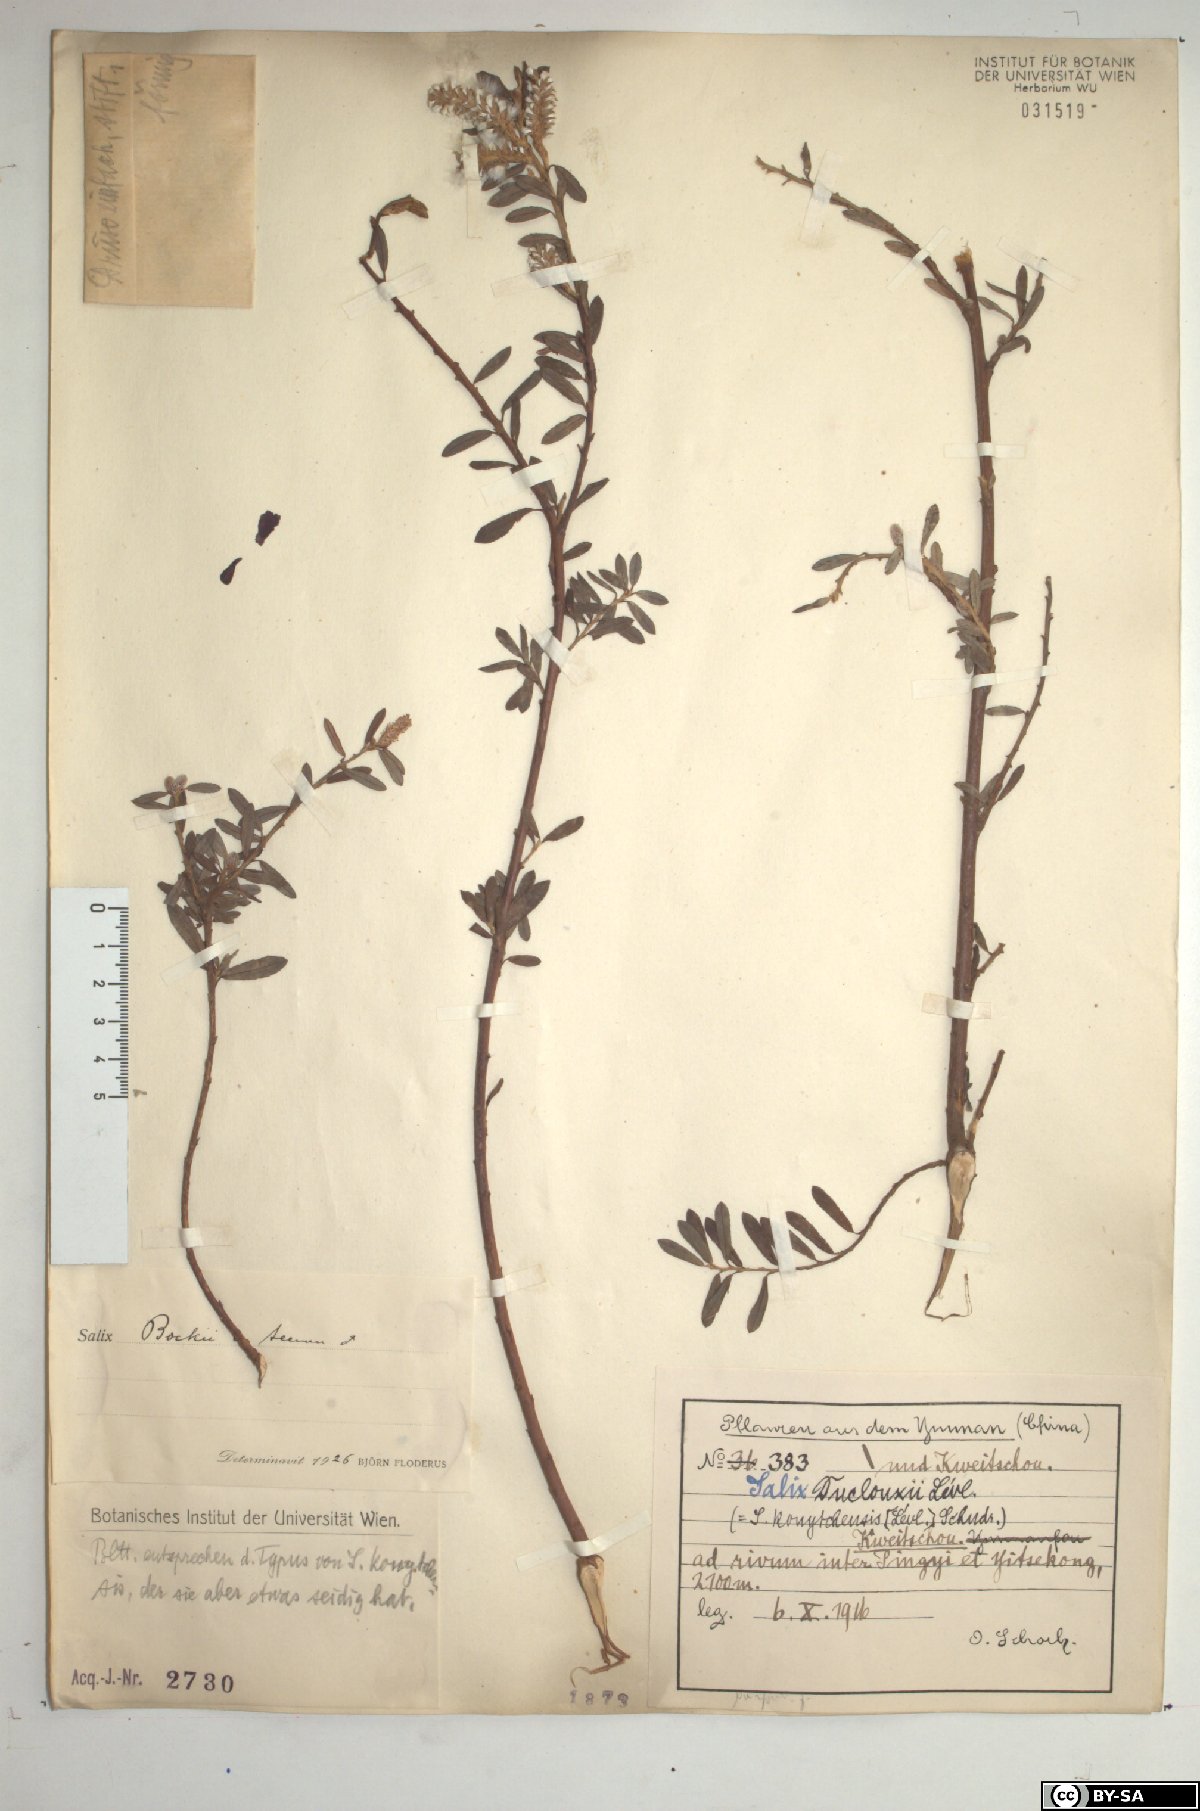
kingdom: Plantae
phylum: Tracheophyta
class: Magnoliopsida
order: Malpighiales
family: Salicaceae
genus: Salix
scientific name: Salix variegata
